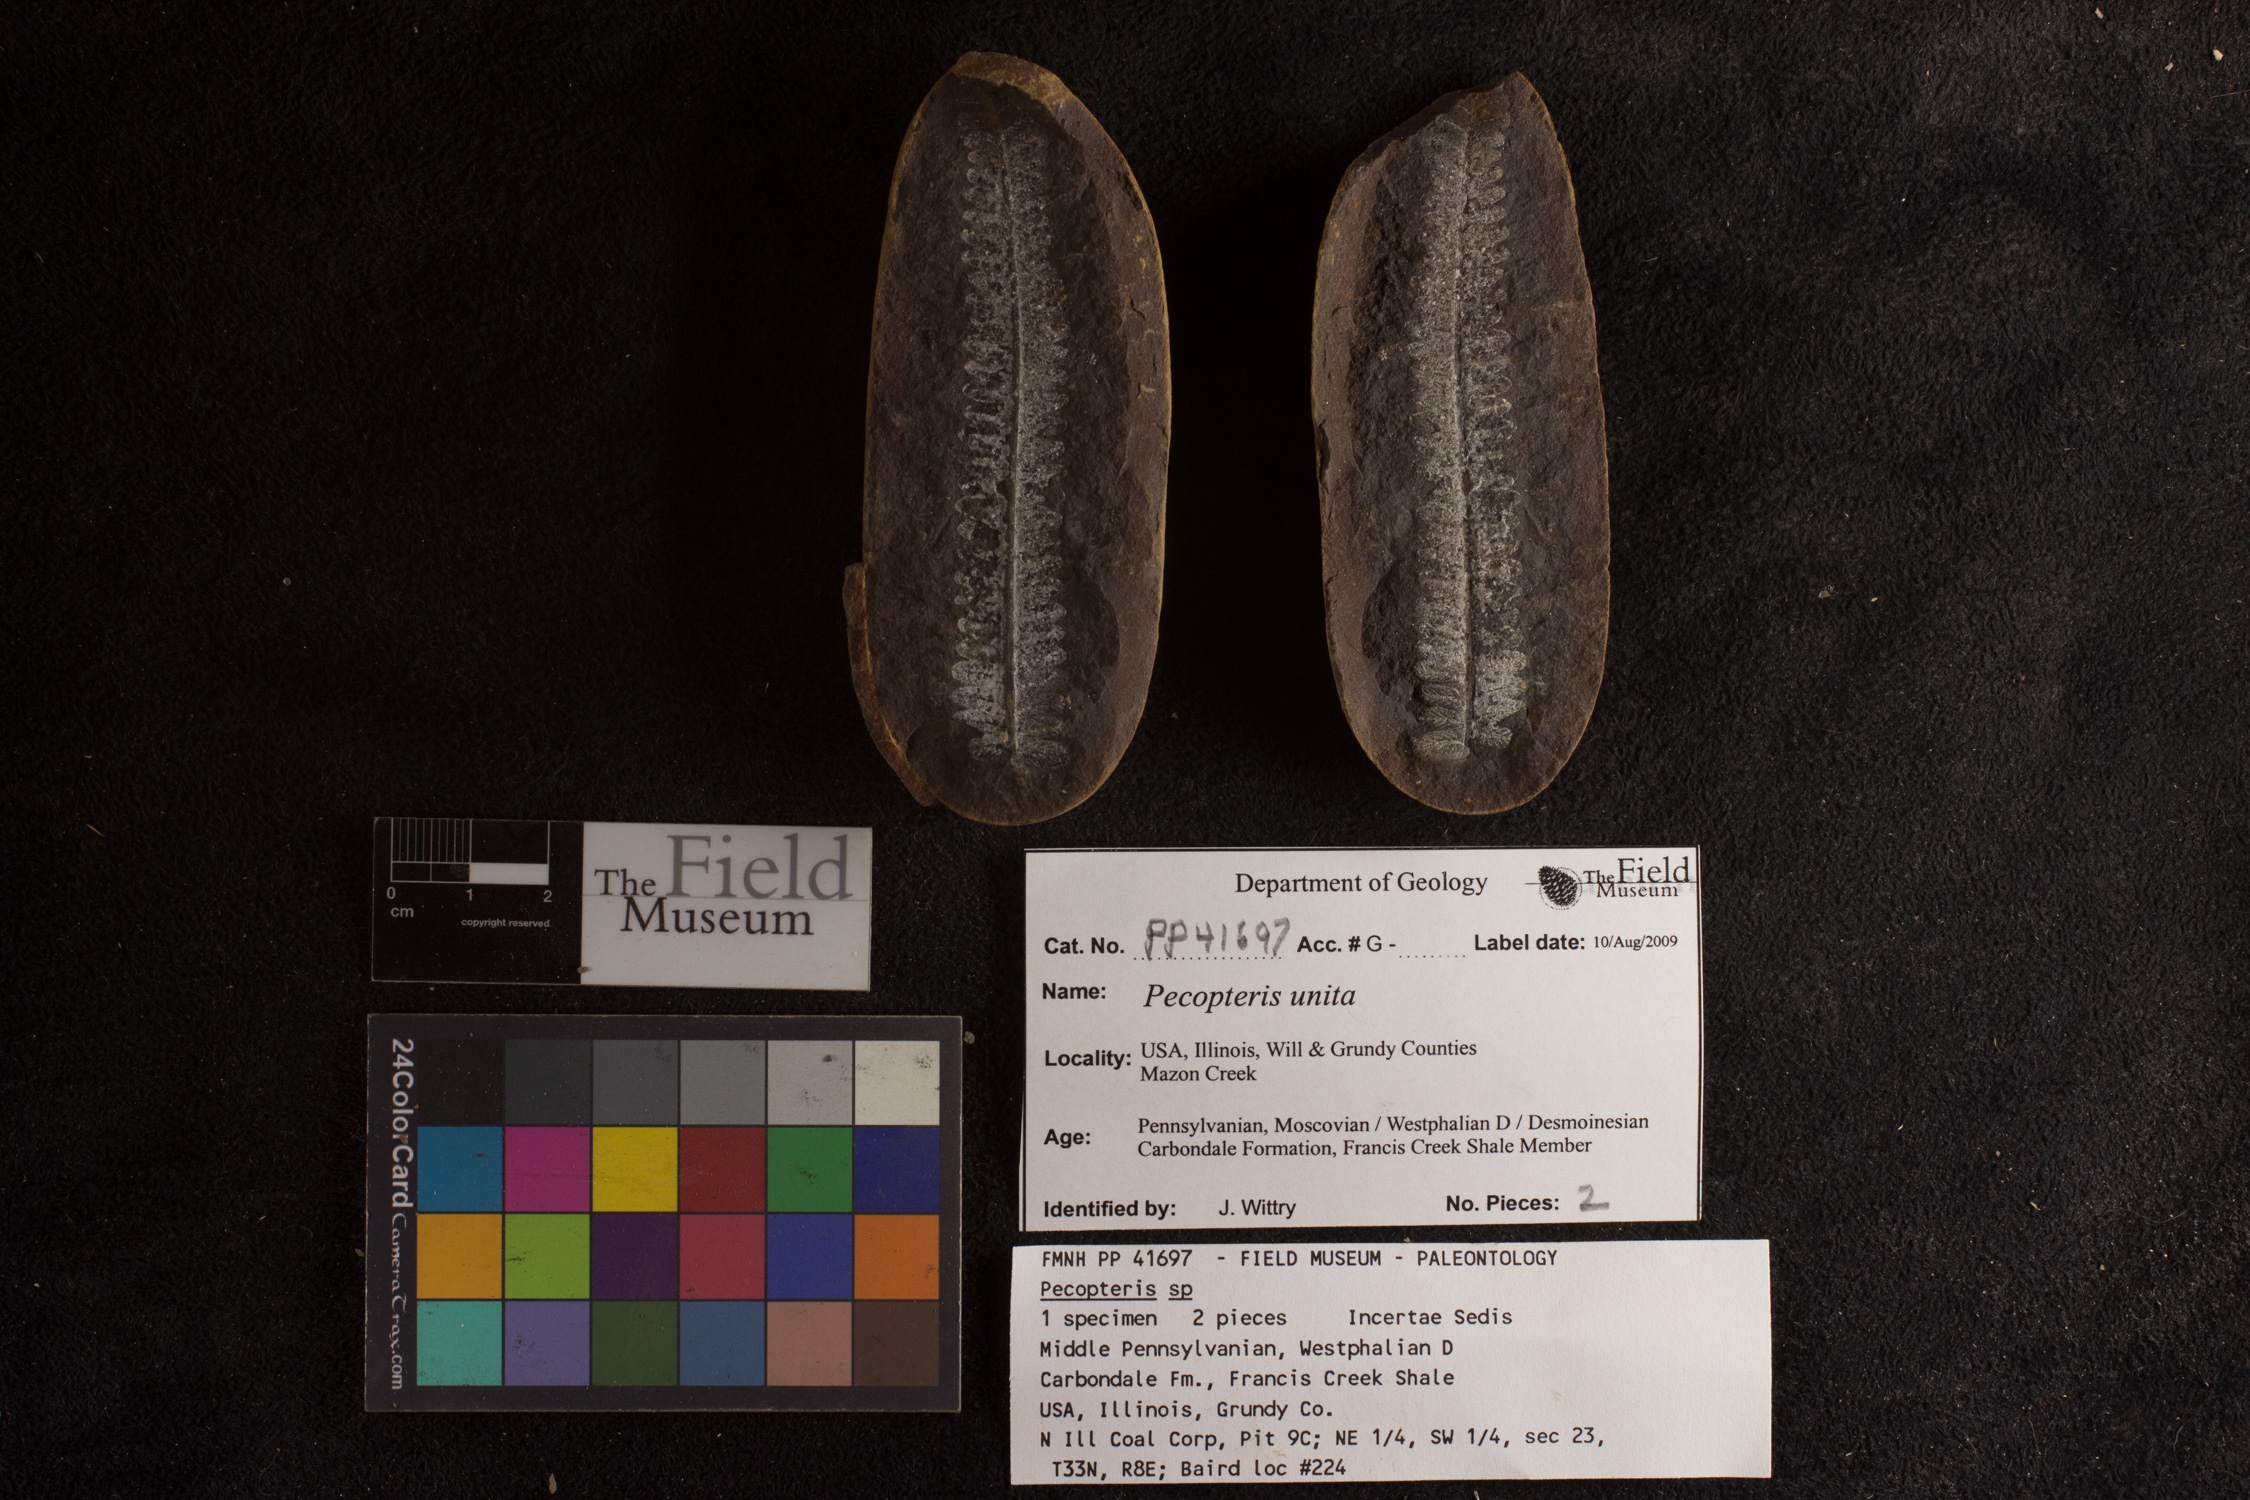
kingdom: Plantae
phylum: Tracheophyta
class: Polypodiopsida
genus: Diplazites
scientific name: Diplazites
